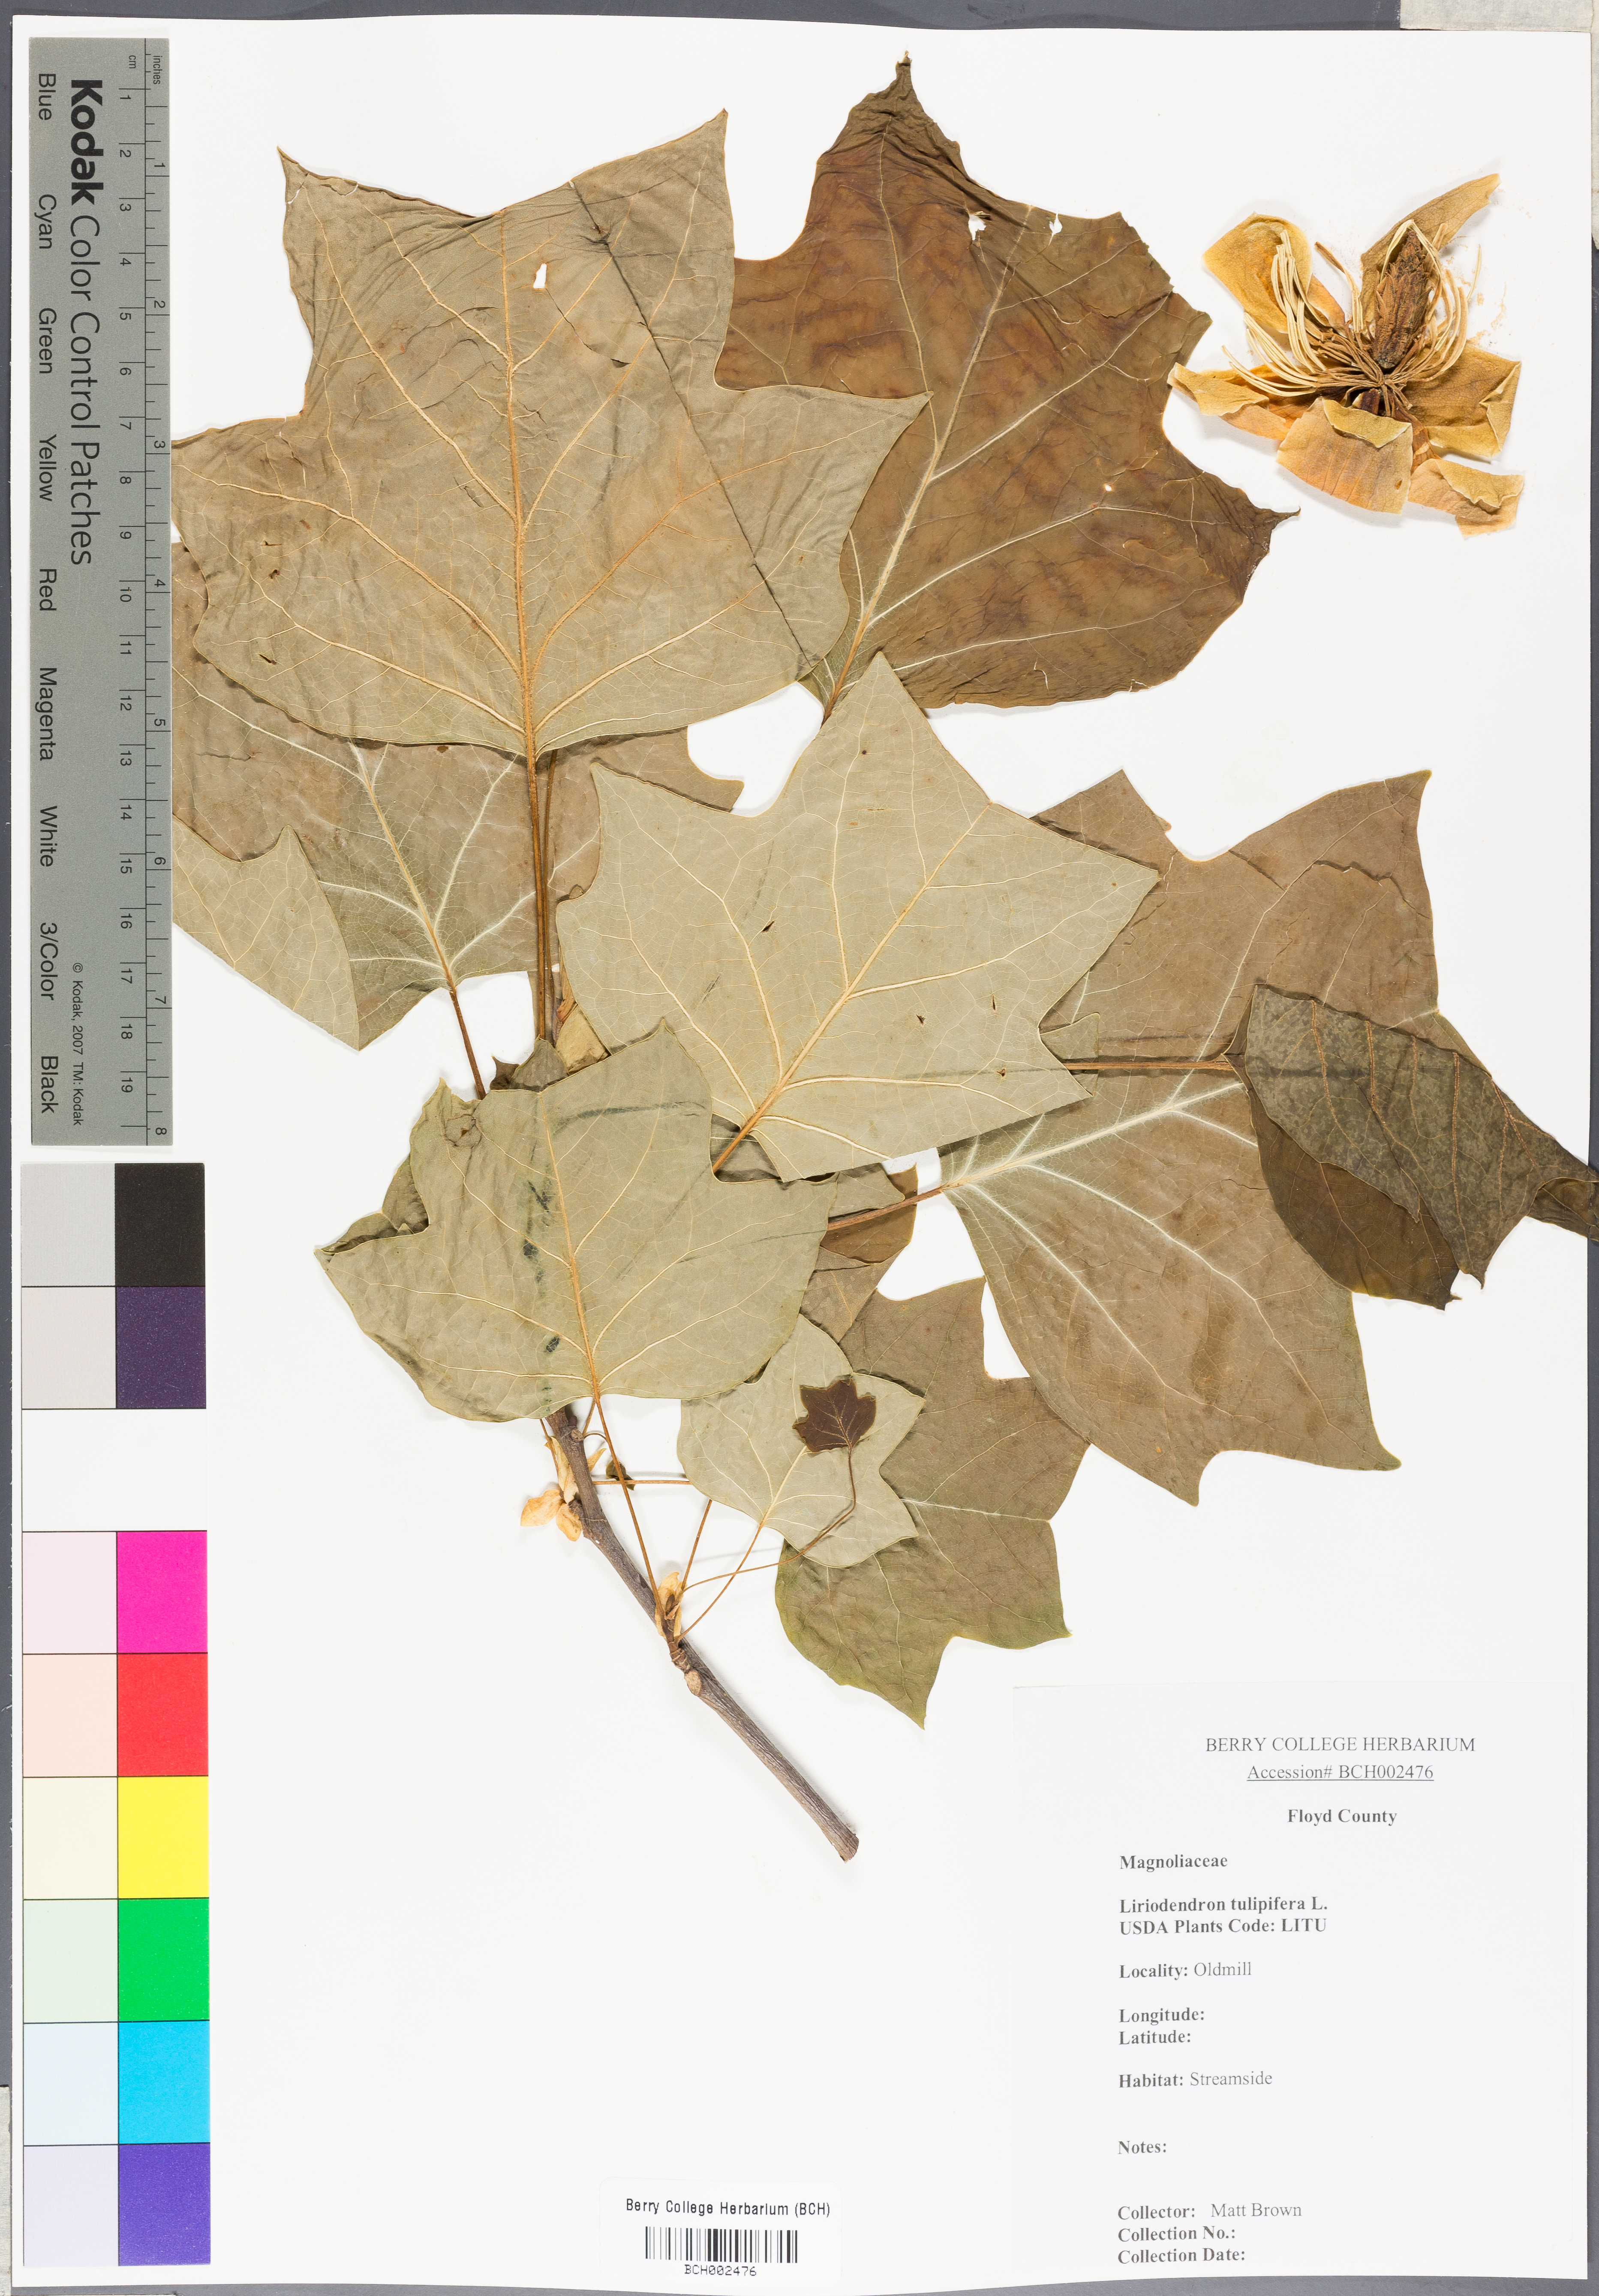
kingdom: Plantae
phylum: Tracheophyta
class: Magnoliopsida
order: Magnoliales
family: Magnoliaceae
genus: Liriodendron
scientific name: Liriodendron tulipifera
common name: Tulip tree
